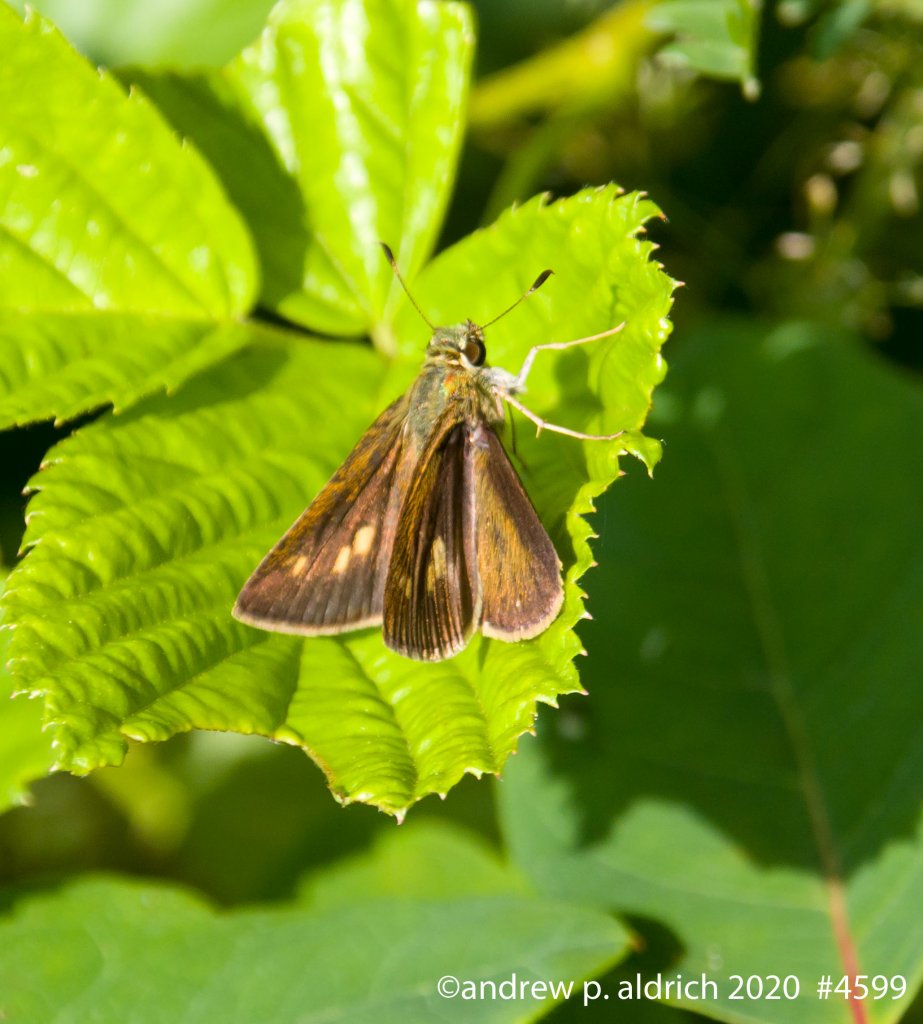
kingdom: Animalia
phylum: Arthropoda
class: Insecta
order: Lepidoptera
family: Hesperiidae
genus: Polites
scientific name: Polites egeremet
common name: Northern Broken-Dash
